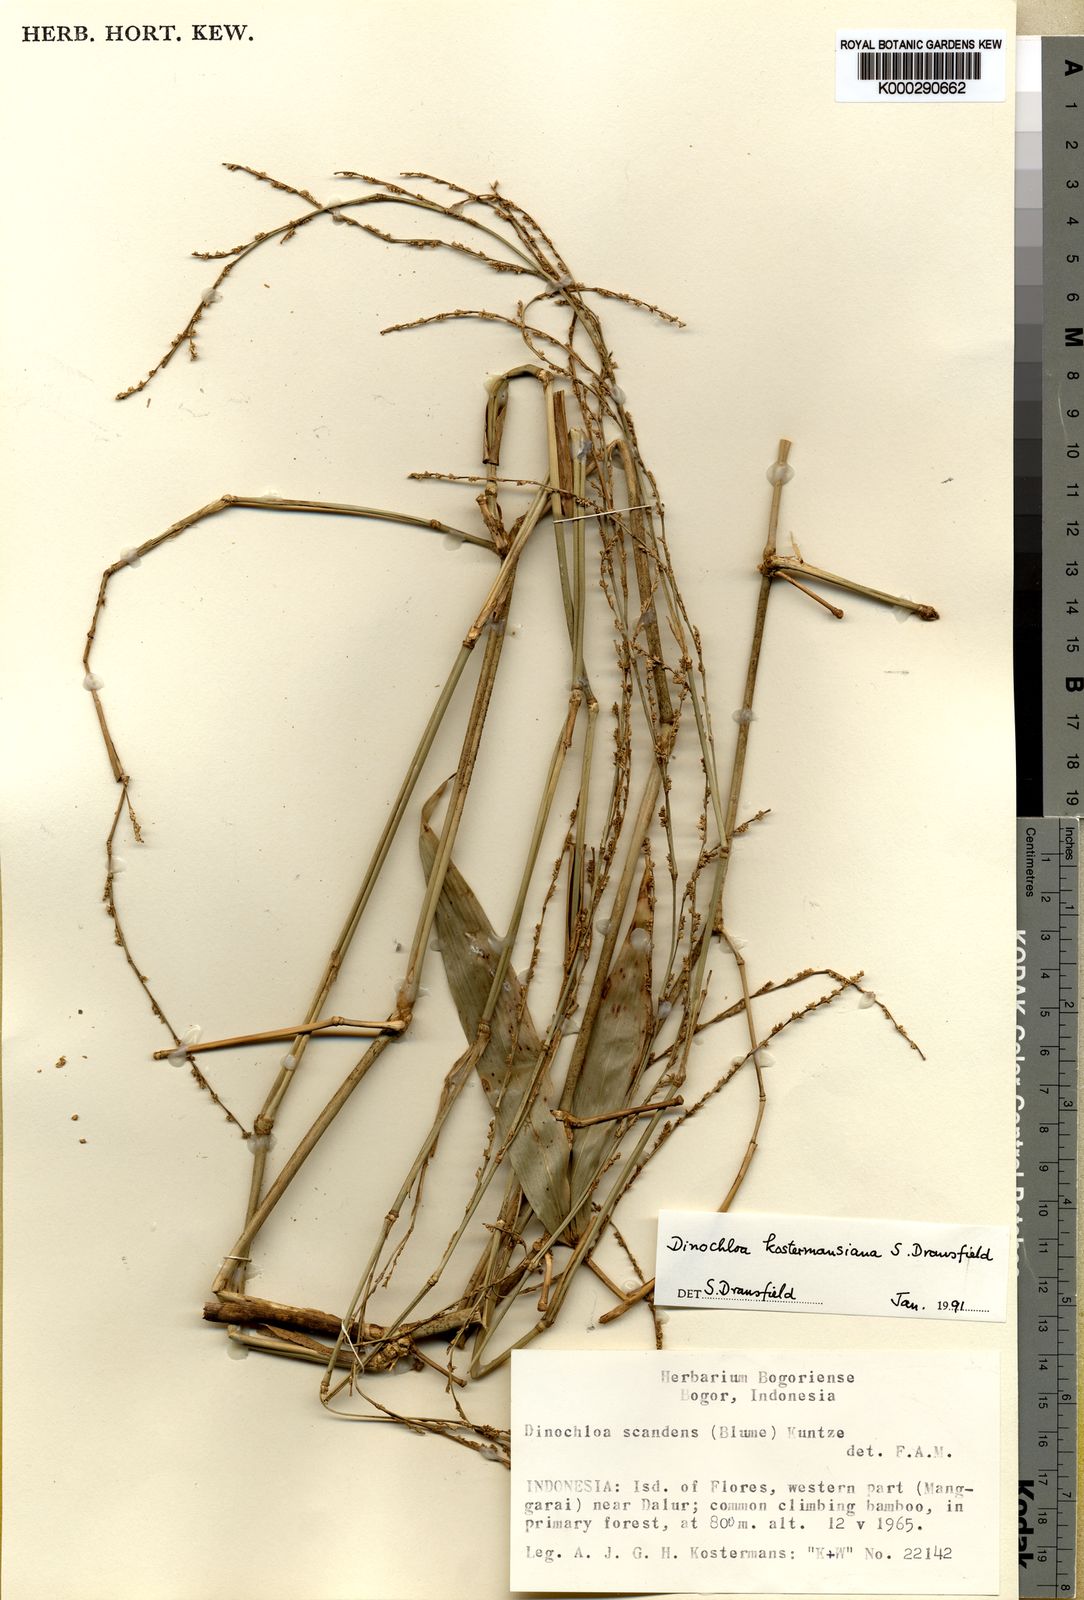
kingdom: Plantae
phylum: Tracheophyta
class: Liliopsida
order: Poales
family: Poaceae
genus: Dinochloa
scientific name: Dinochloa kostermansiana
